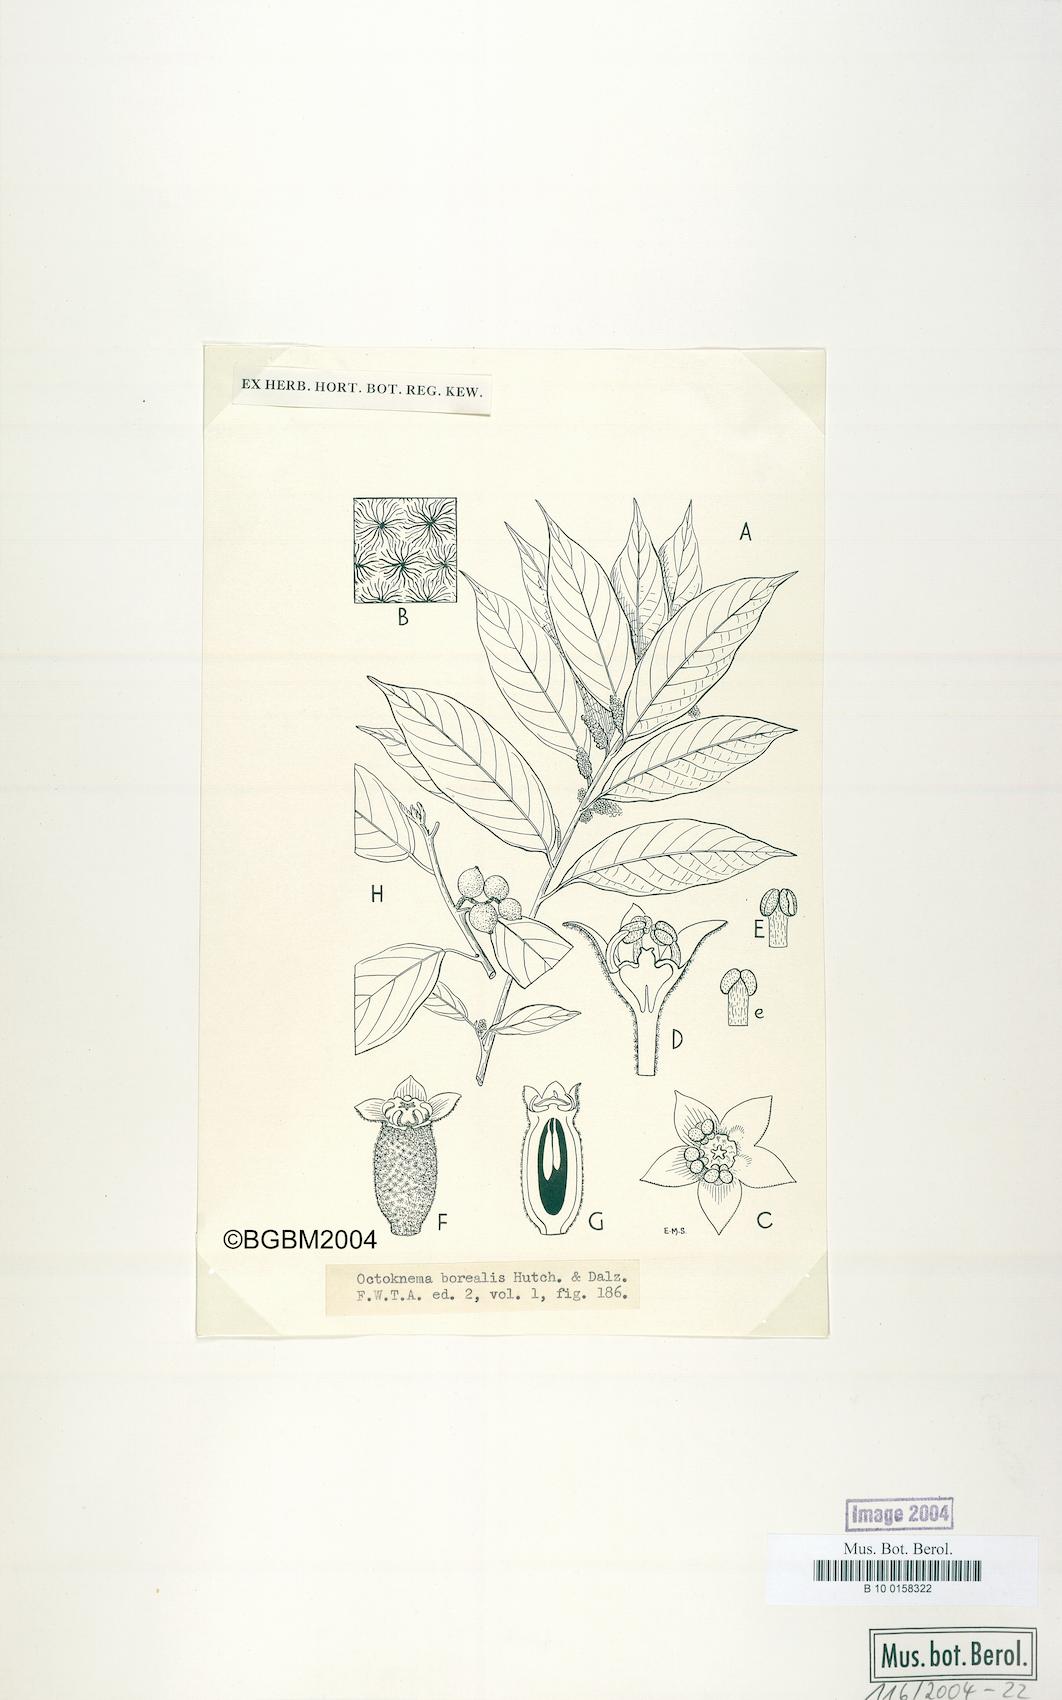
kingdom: Plantae
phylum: Tracheophyta
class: Magnoliopsida
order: Santalales
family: Octoknemaceae
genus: Octoknema
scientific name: Octoknema borealis
